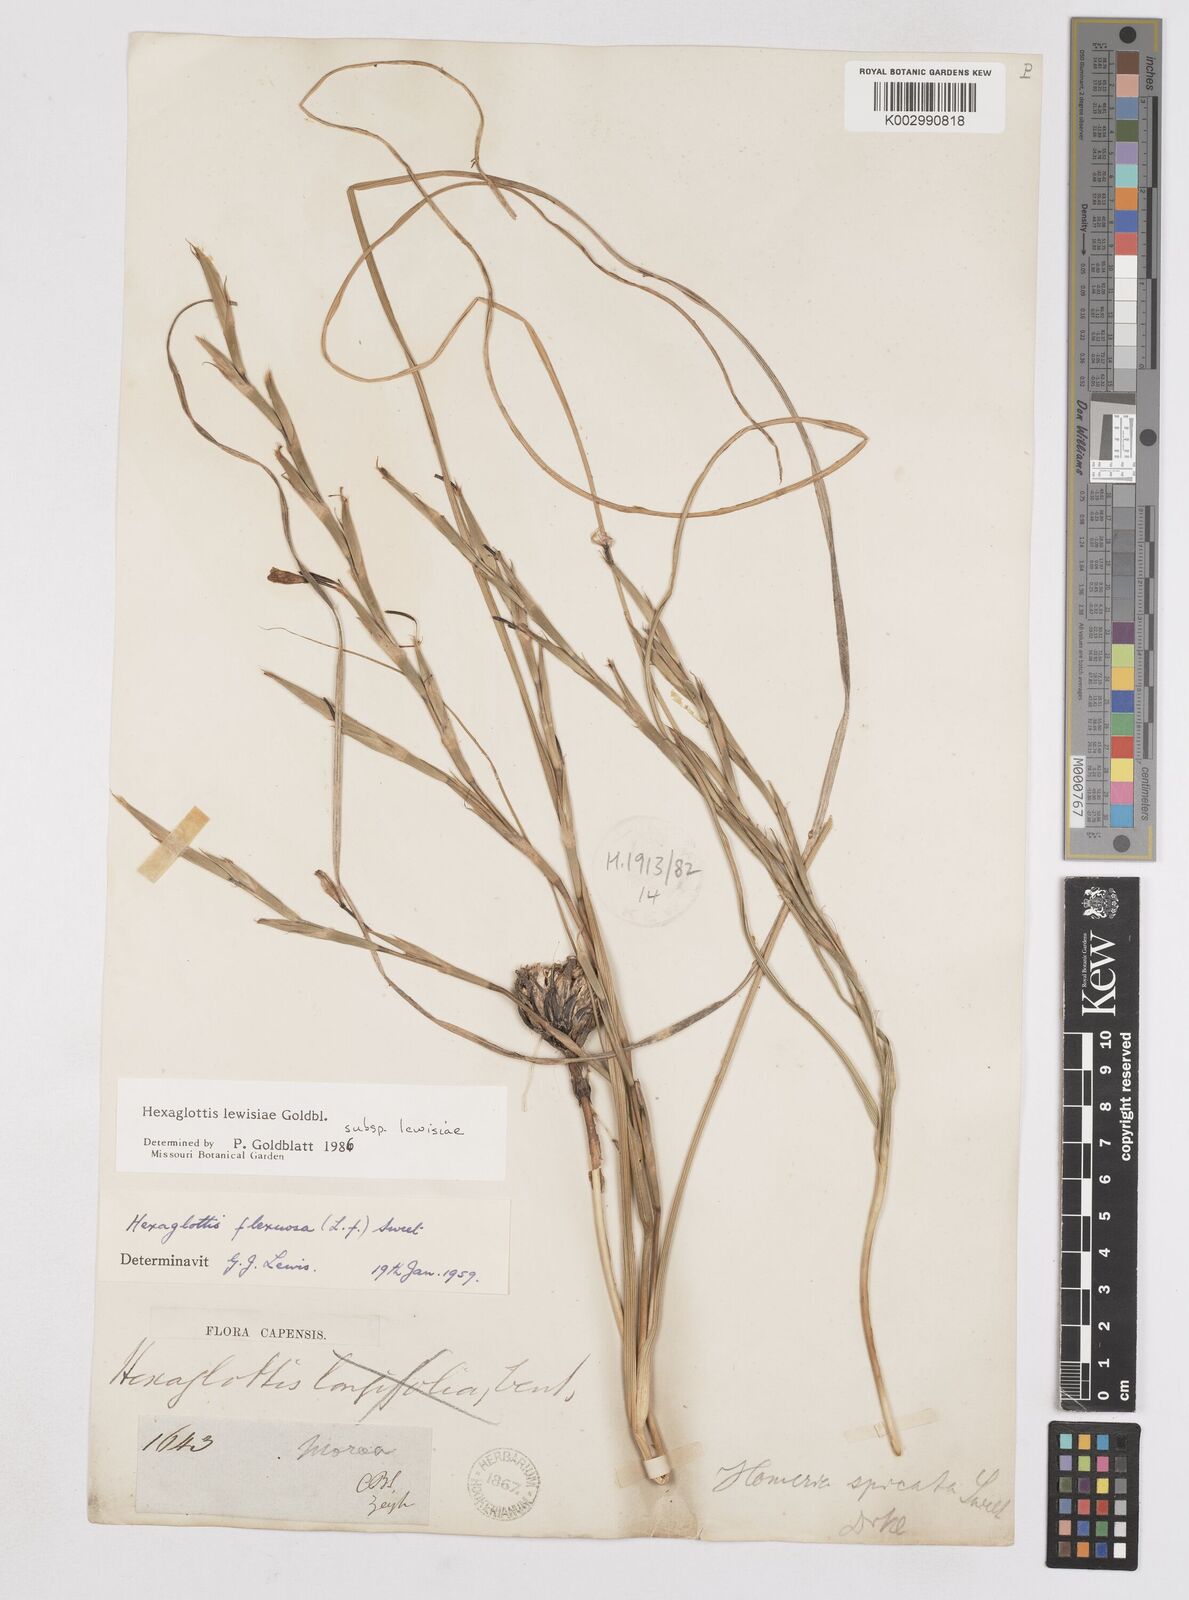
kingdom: Plantae
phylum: Tracheophyta
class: Liliopsida
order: Asparagales
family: Iridaceae
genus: Moraea
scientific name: Moraea lewisiae
